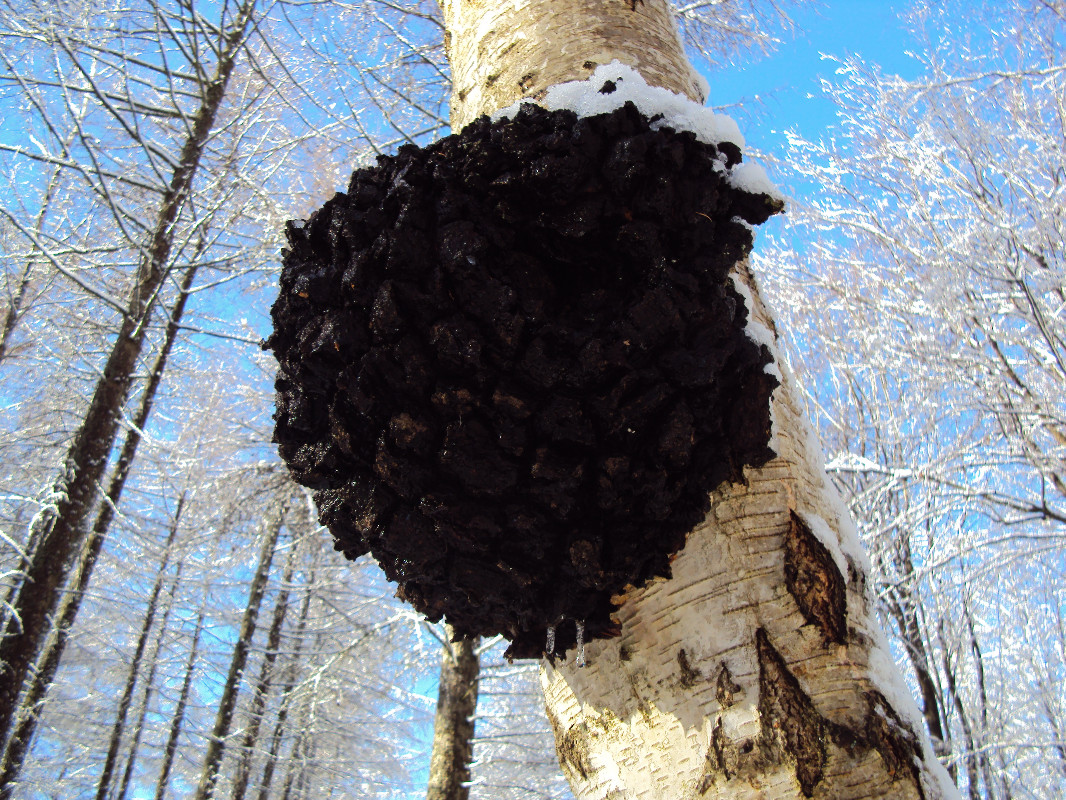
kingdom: Fungi
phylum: Basidiomycota
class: Agaricomycetes
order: Hymenochaetales
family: Hymenochaetaceae
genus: Inonotus
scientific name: Inonotus obliquus
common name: birke-spejlporesvamp
